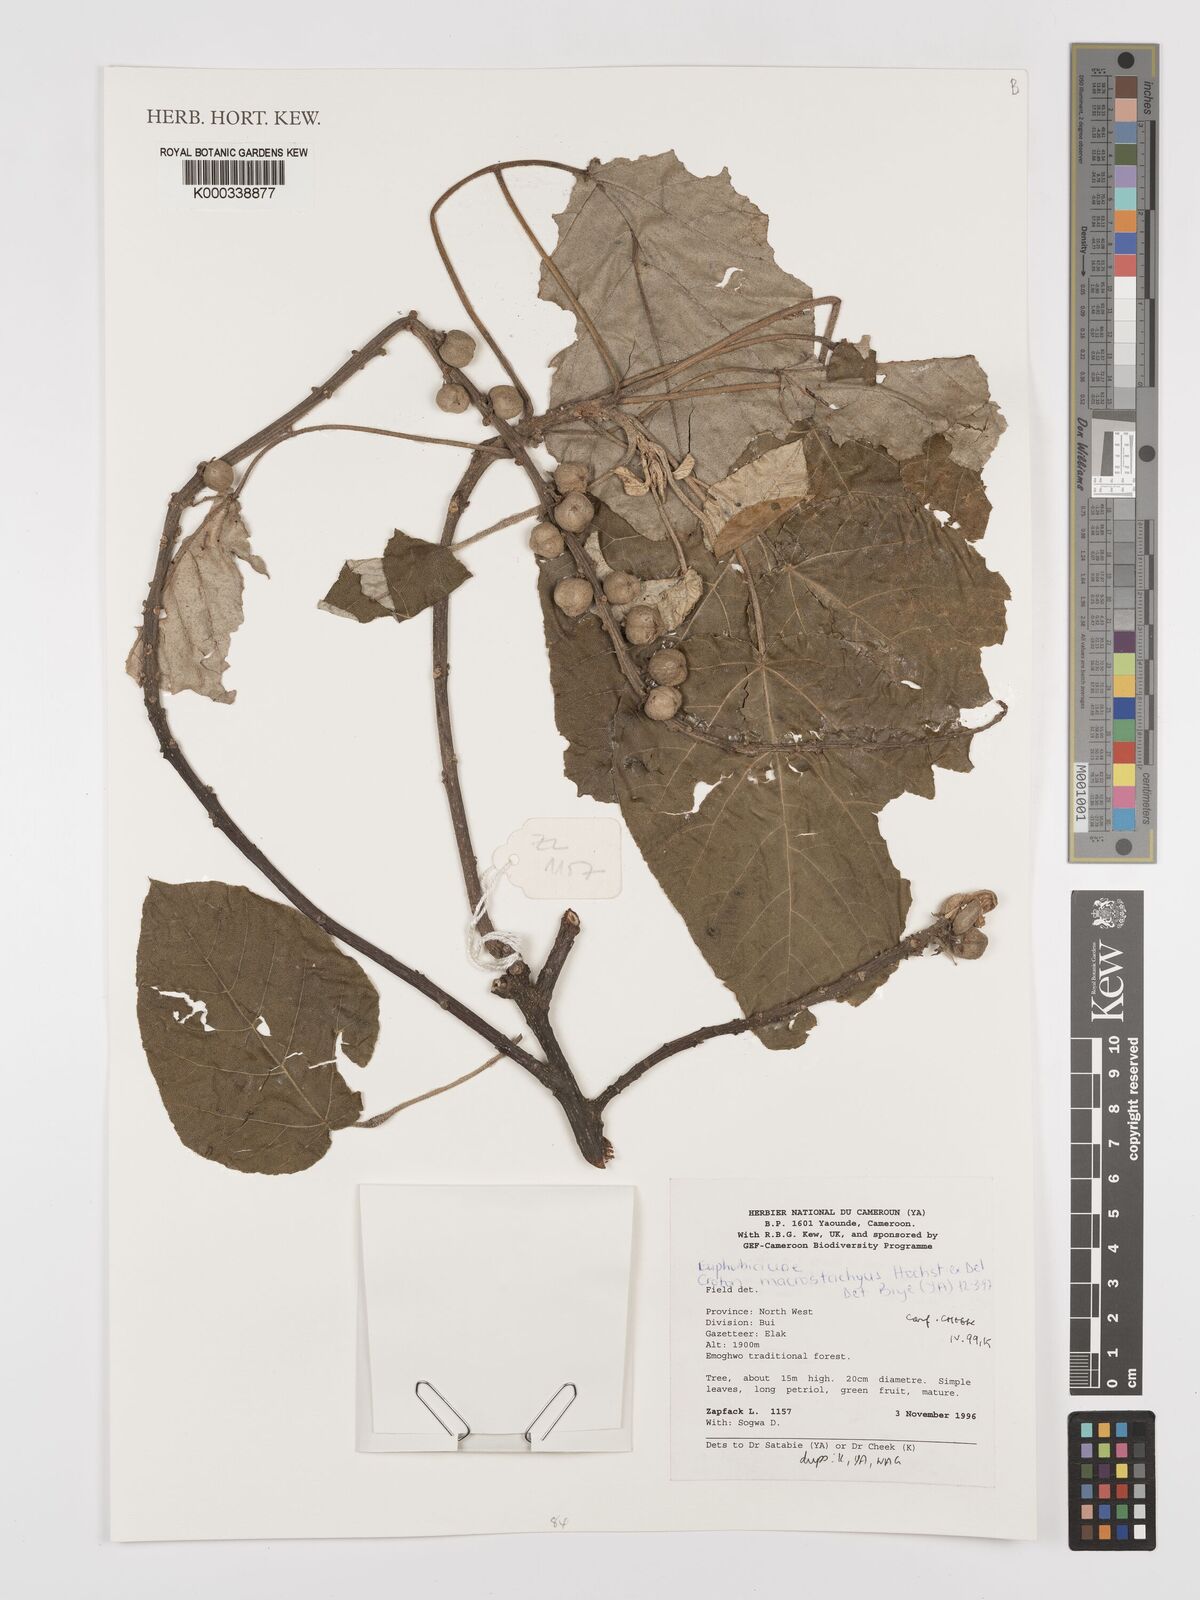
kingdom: Plantae
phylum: Tracheophyta
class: Magnoliopsida
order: Malpighiales
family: Euphorbiaceae
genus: Croton
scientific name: Croton macrostachyus
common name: Mutundu
